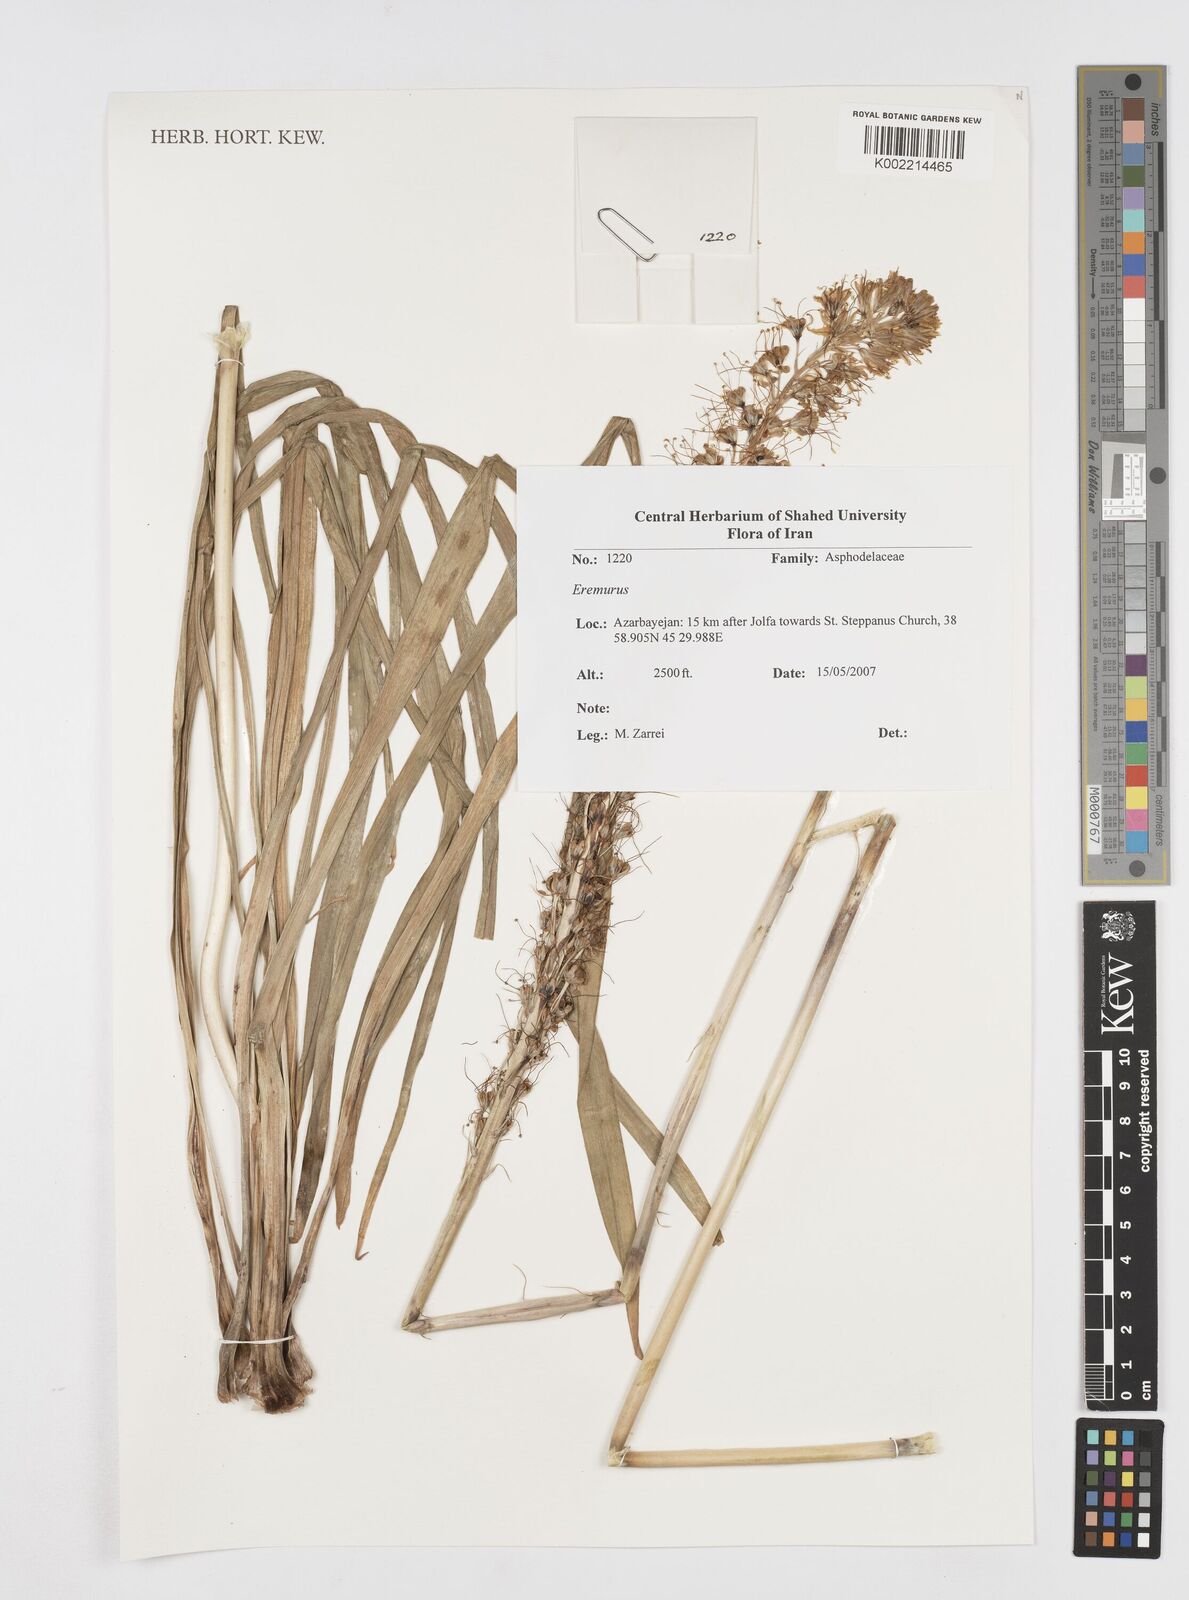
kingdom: Plantae
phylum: Tracheophyta
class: Liliopsida
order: Asparagales
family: Asphodelaceae
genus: Eremurus
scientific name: Eremurus
